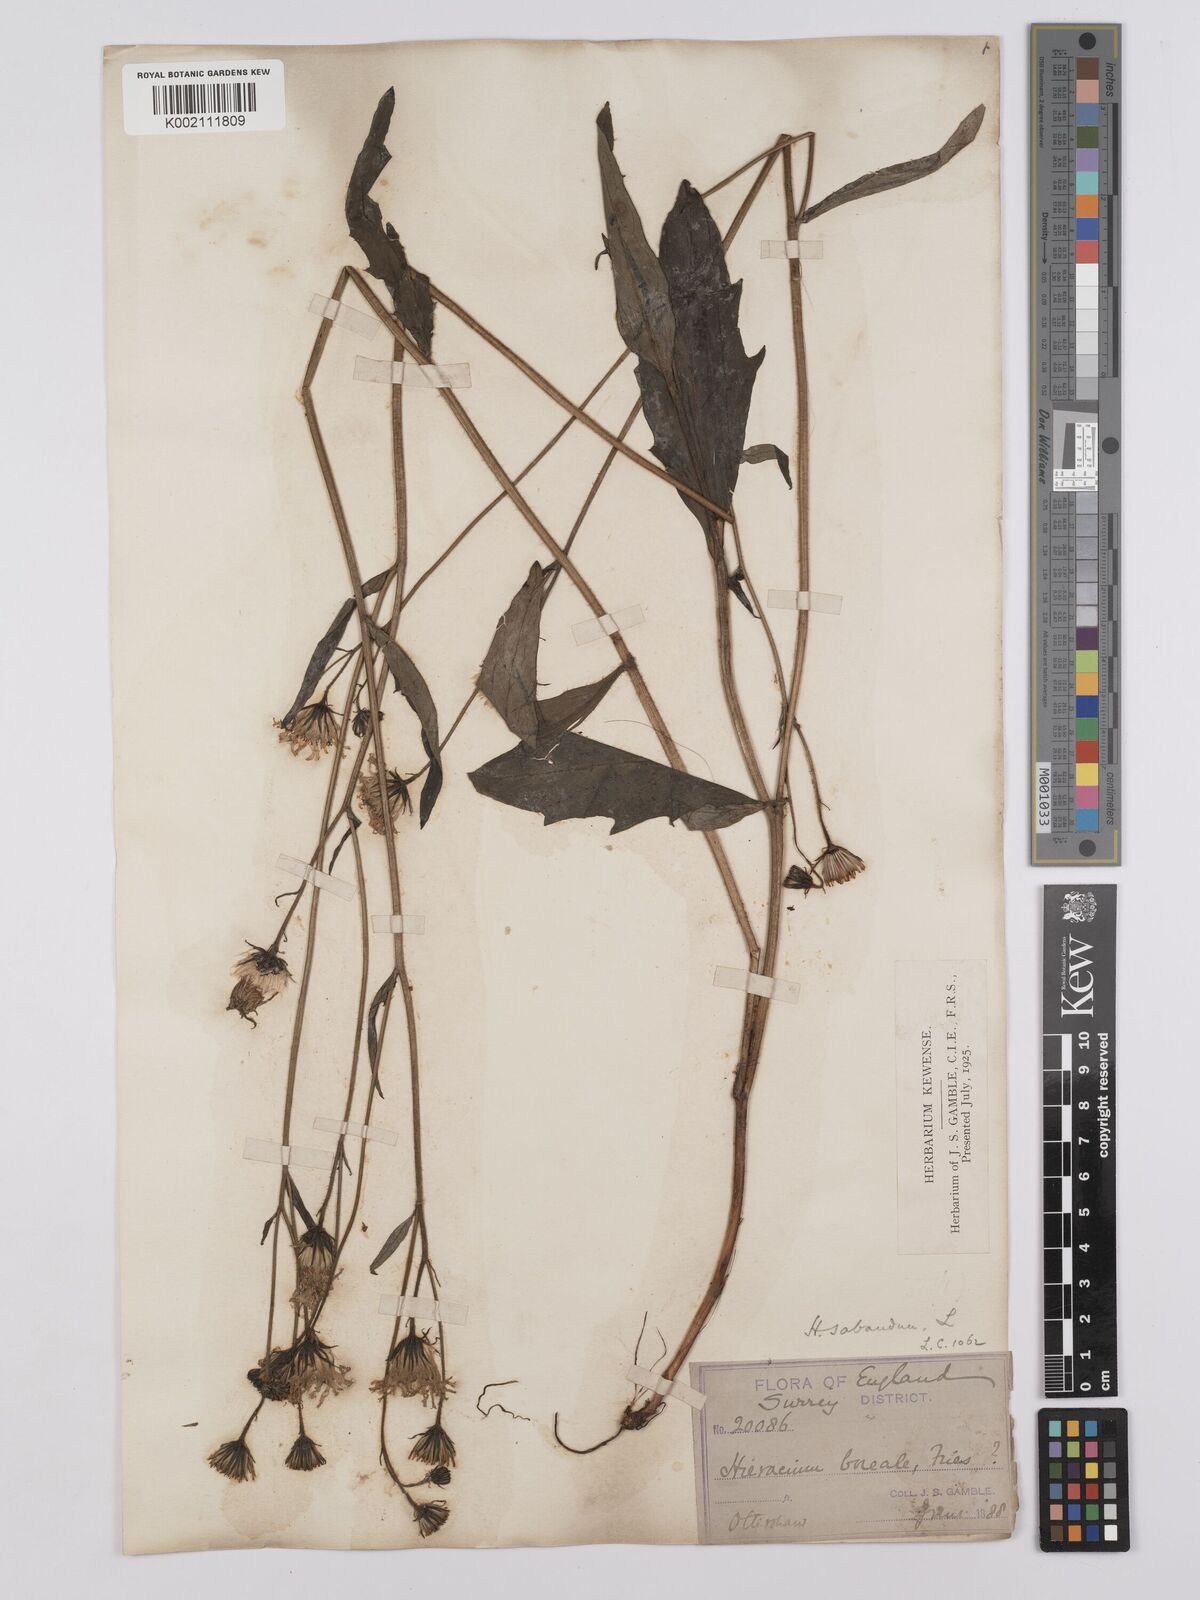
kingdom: Plantae
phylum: Tracheophyta
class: Magnoliopsida
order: Asterales
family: Asteraceae
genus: Hieracium
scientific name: Hieracium lachenalii
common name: Common hawkweed
